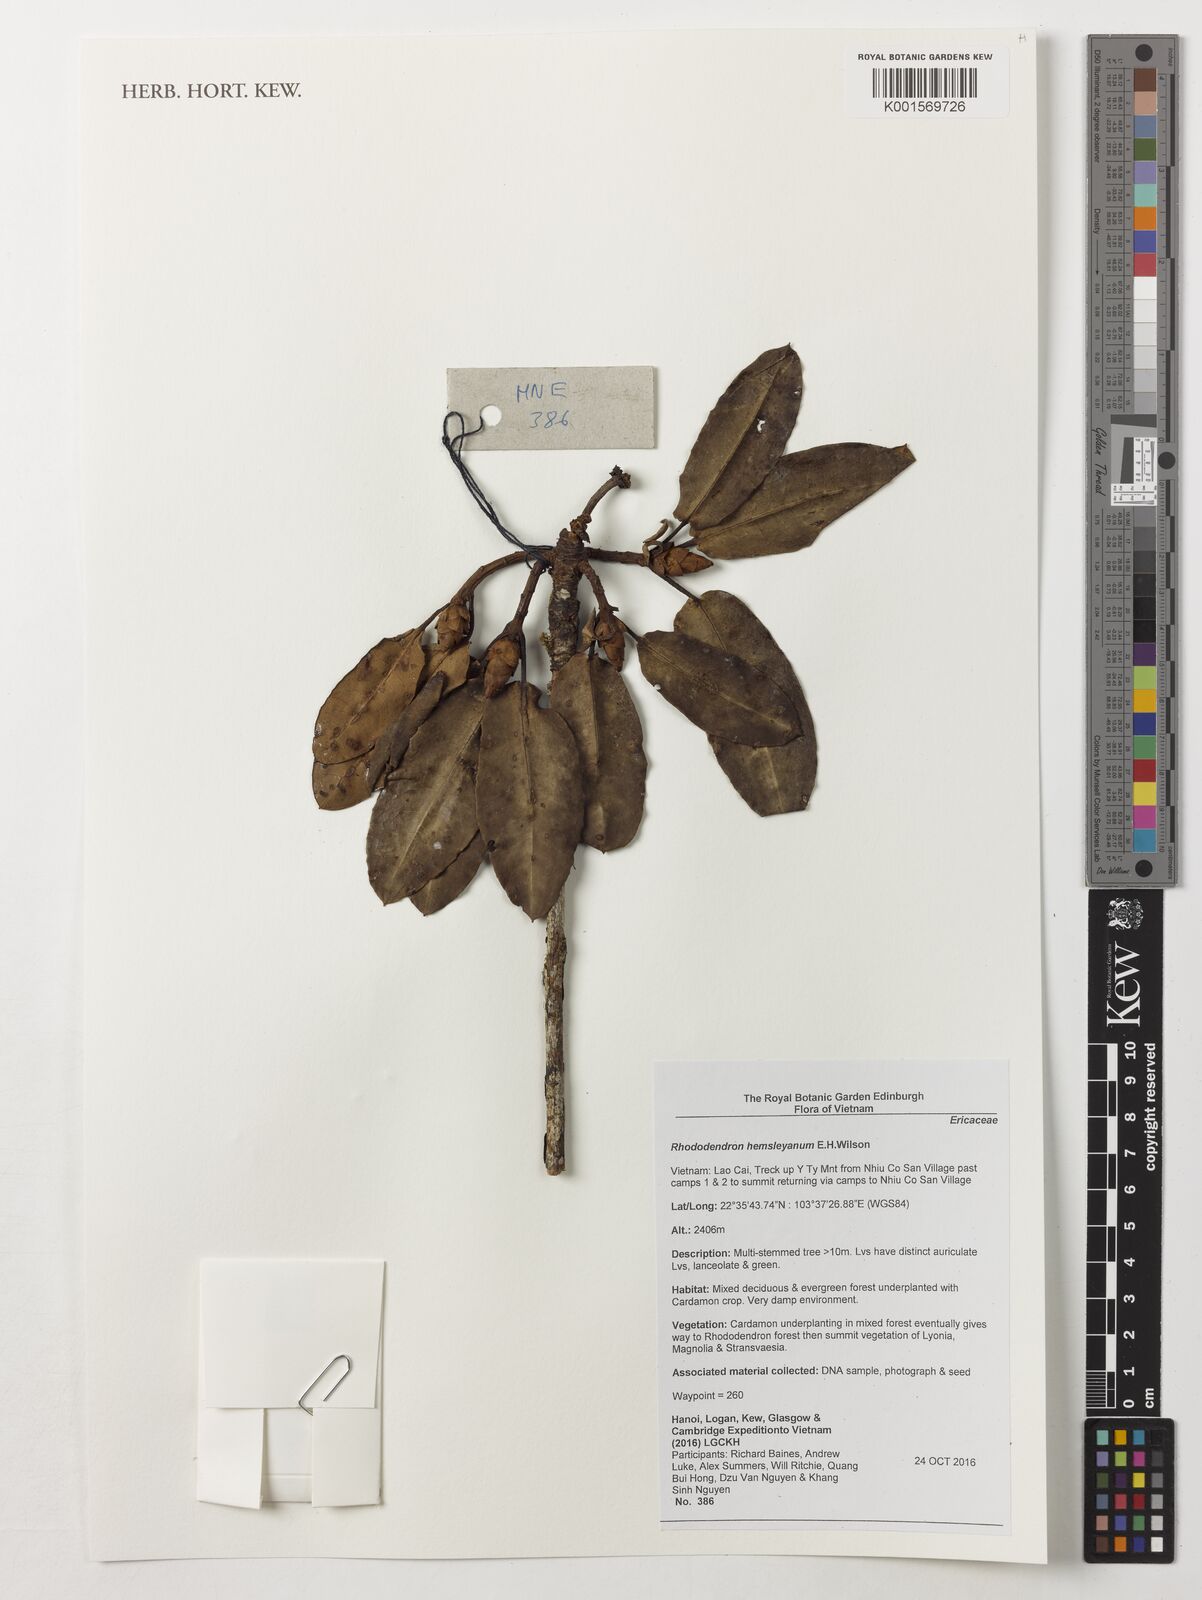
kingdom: Plantae
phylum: Tracheophyta
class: Magnoliopsida
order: Ericales
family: Ericaceae
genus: Rhododendron
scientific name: Rhododendron hemsleyanum
